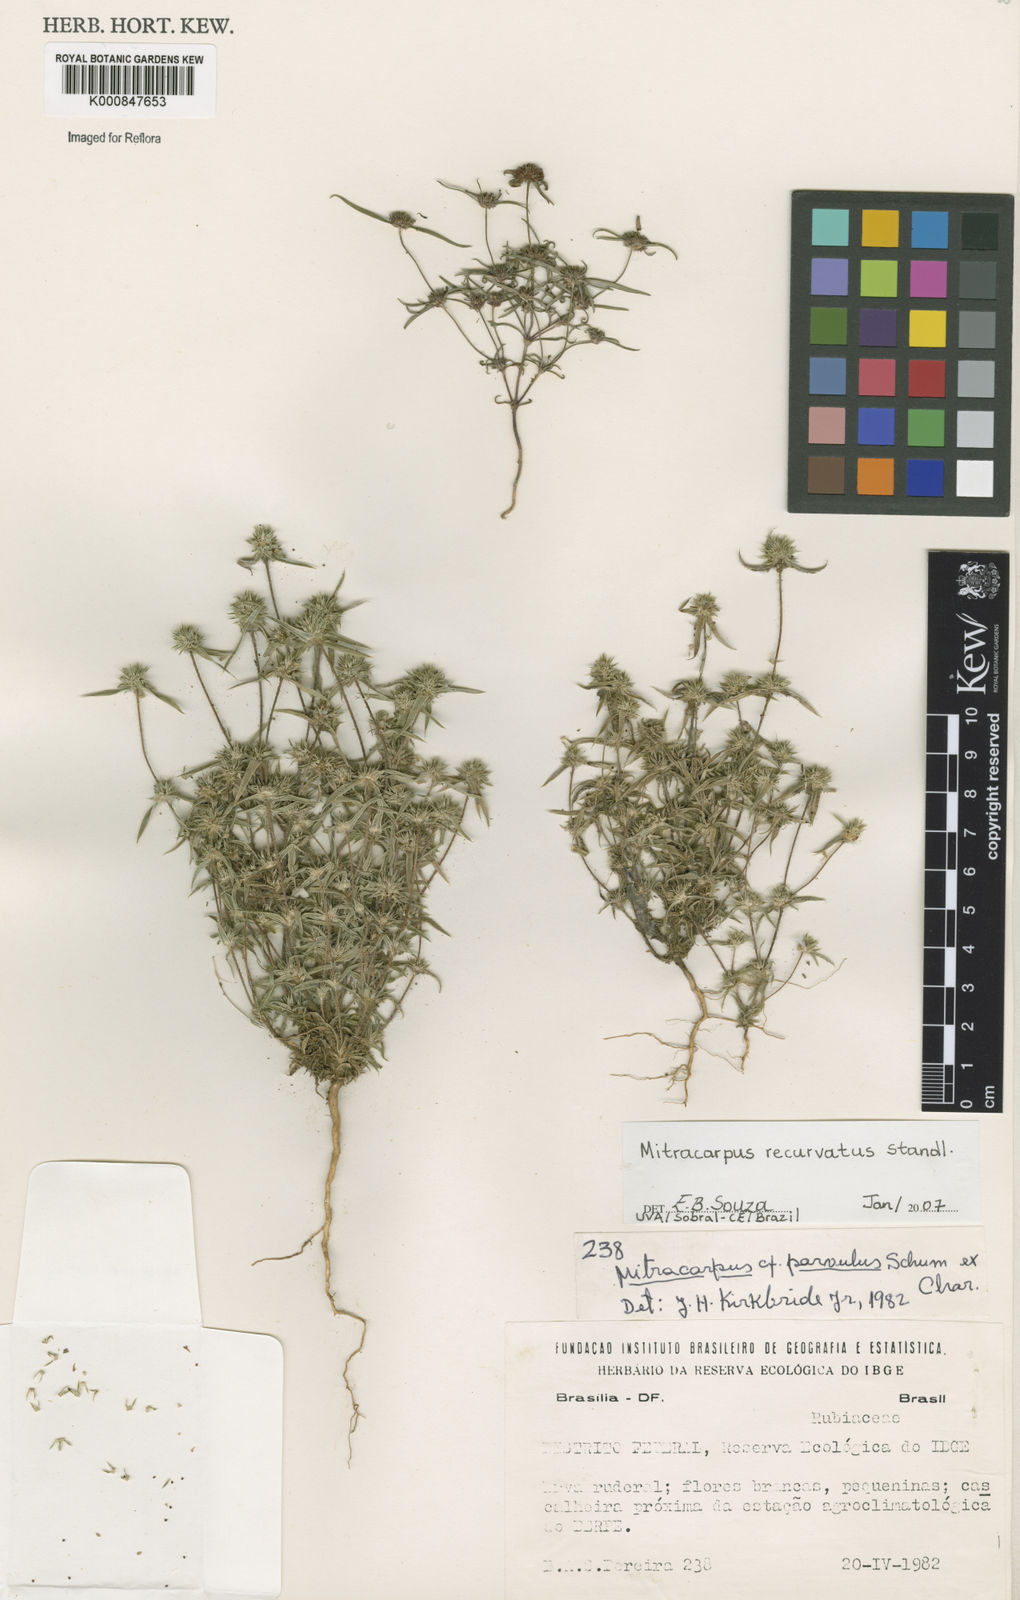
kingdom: Plantae
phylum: Tracheophyta
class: Magnoliopsida
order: Gentianales
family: Rubiaceae
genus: Mitracarpus
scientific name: Mitracarpus recurvatus
